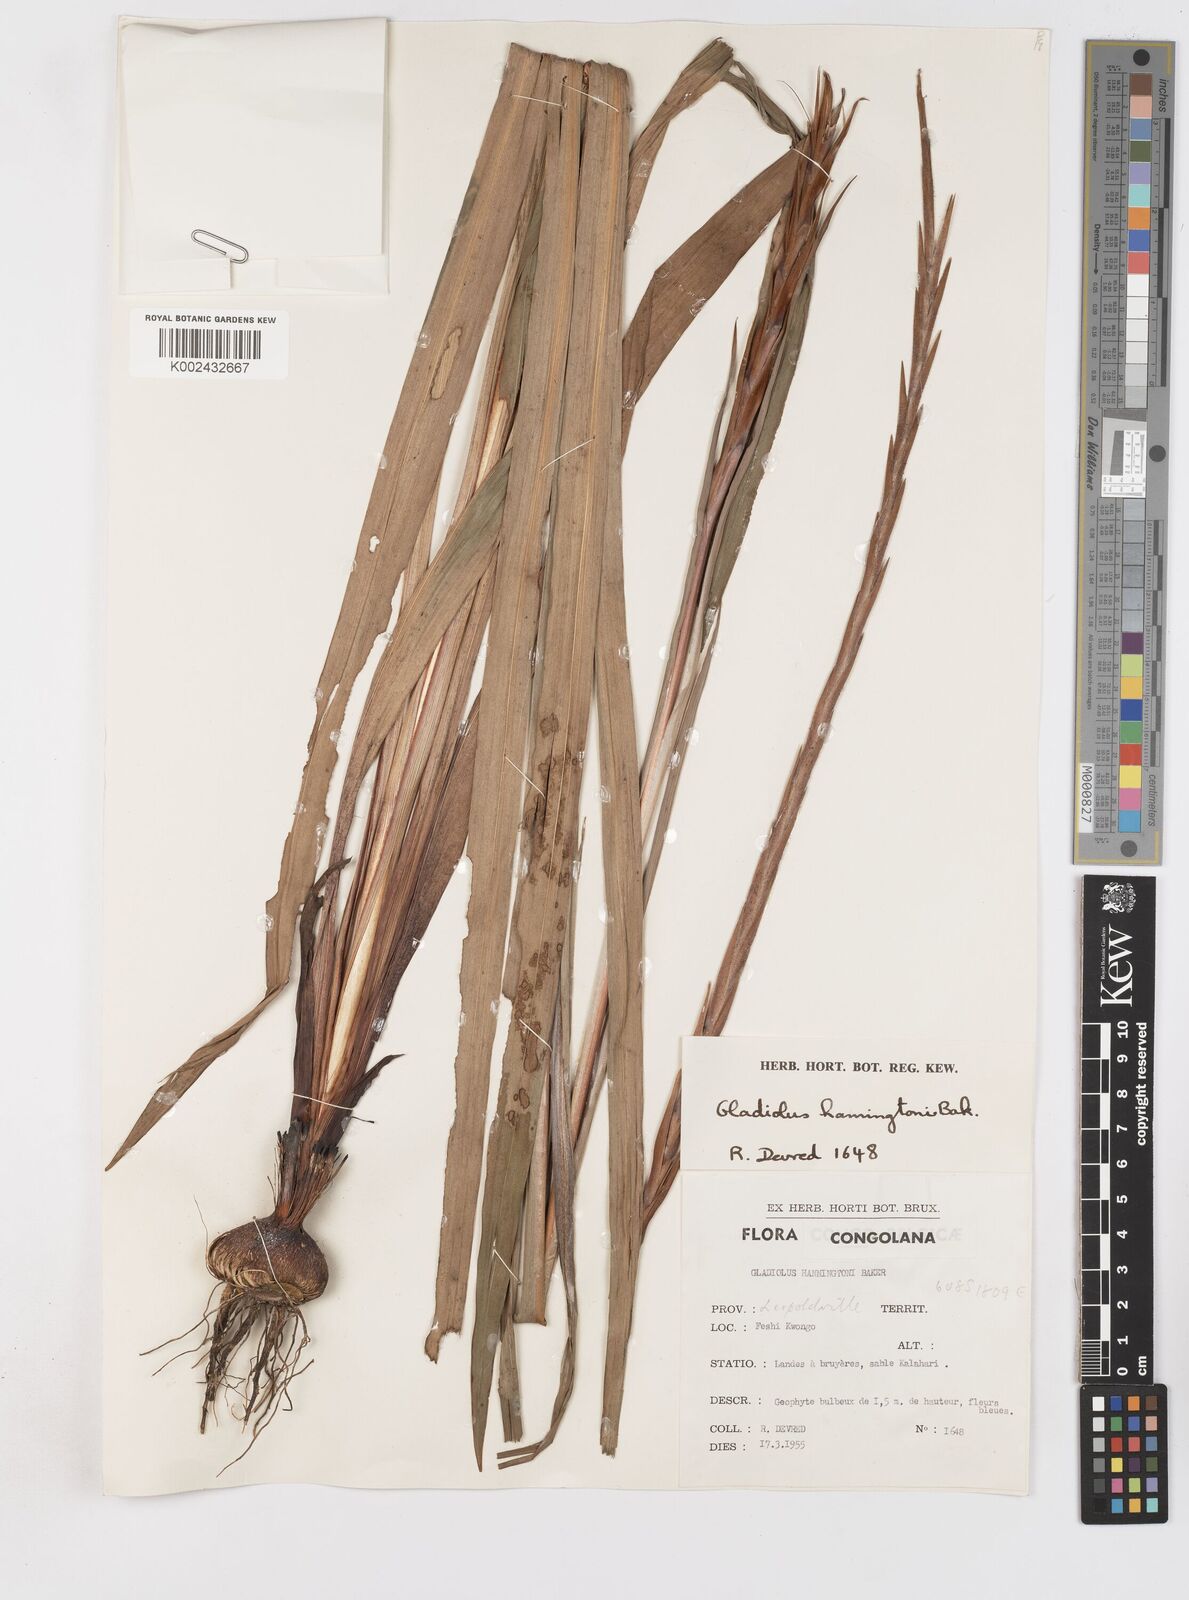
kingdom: Plantae
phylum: Tracheophyta
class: Liliopsida
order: Asparagales
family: Iridaceae
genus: Gladiolus
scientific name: Gladiolus gregarius
